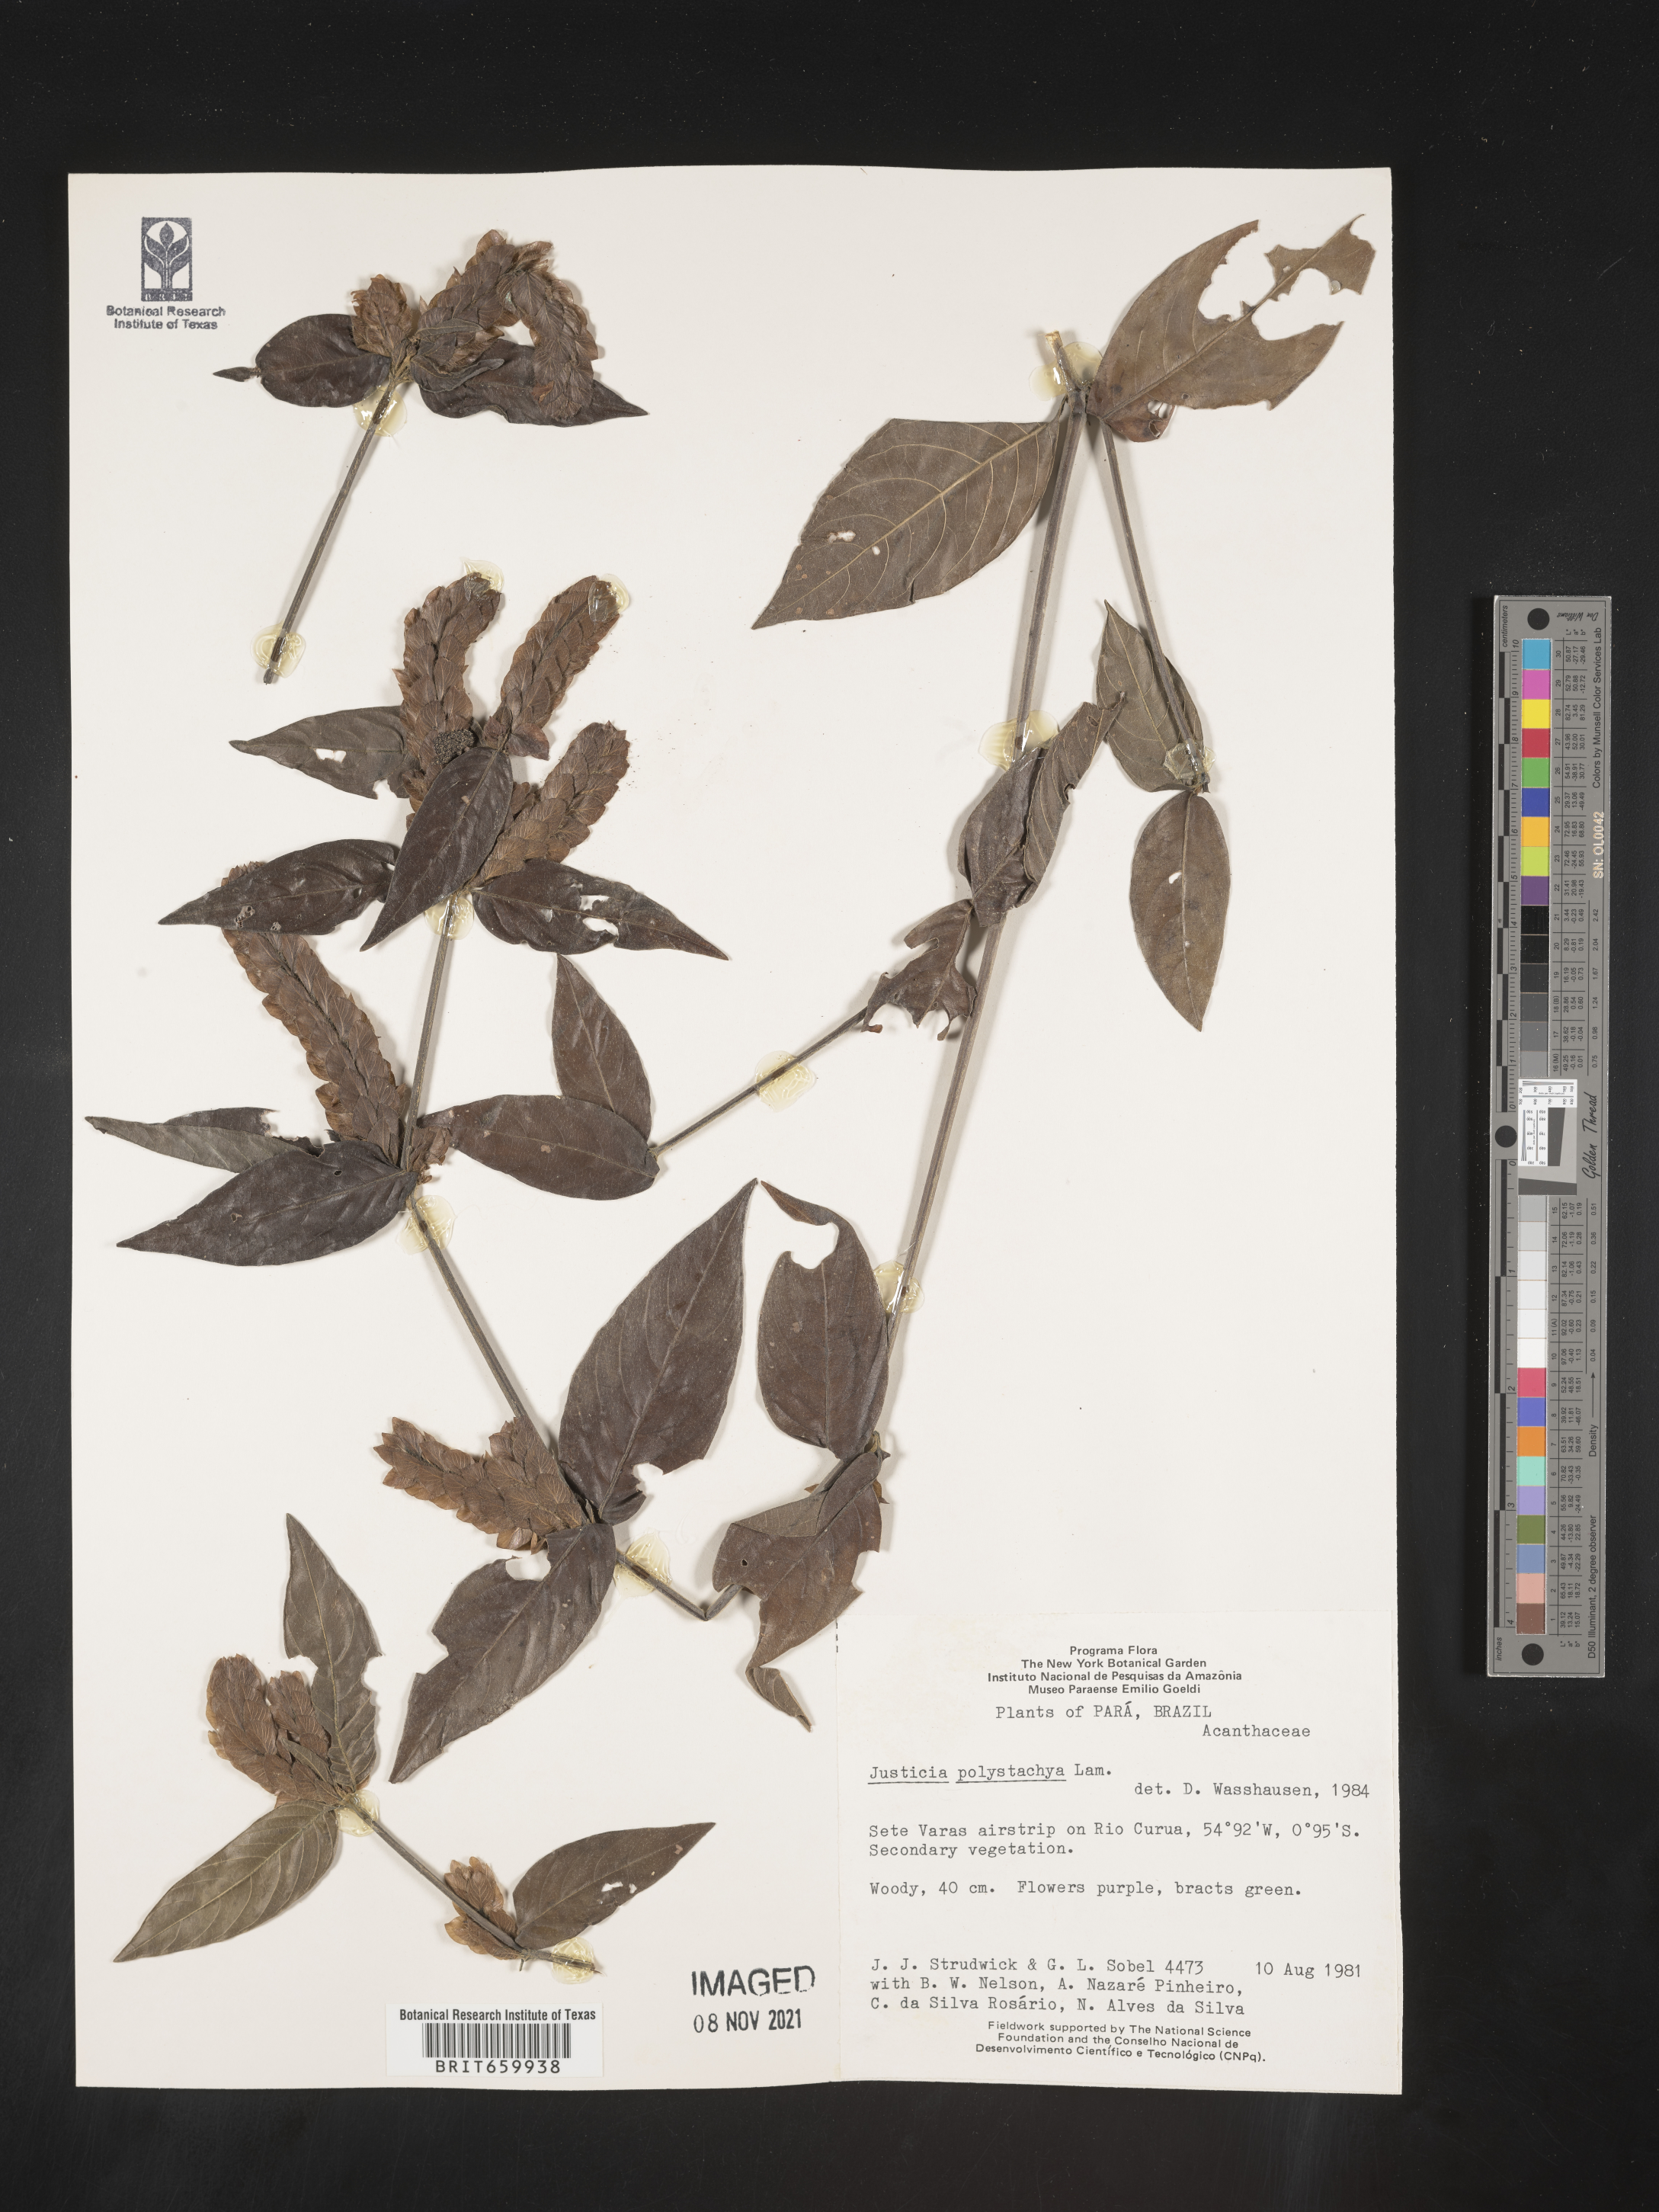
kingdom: Plantae
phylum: Tracheophyta
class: Magnoliopsida
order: Lamiales
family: Acanthaceae
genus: Justicia
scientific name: Justicia polystachya
